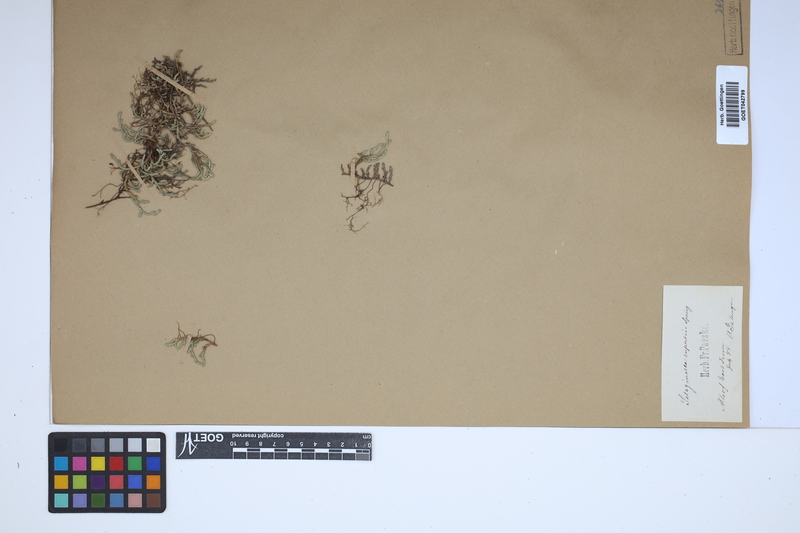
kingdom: Plantae
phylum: Tracheophyta
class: Lycopodiopsida
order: Selaginellales
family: Selaginellaceae
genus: Selaginella
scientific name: Selaginella rupestris
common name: Dwarf spikemoss
